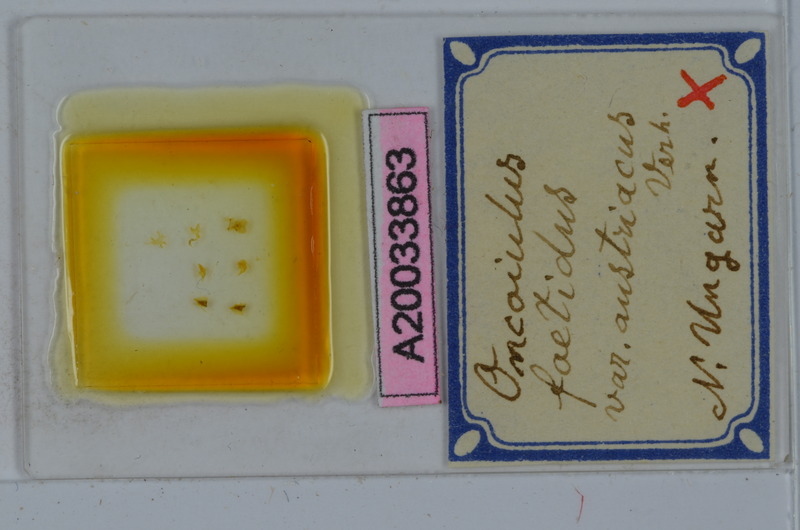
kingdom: Animalia
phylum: Arthropoda
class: Diplopoda
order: Julida
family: Julidae
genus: Unciger
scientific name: Unciger foetidus
